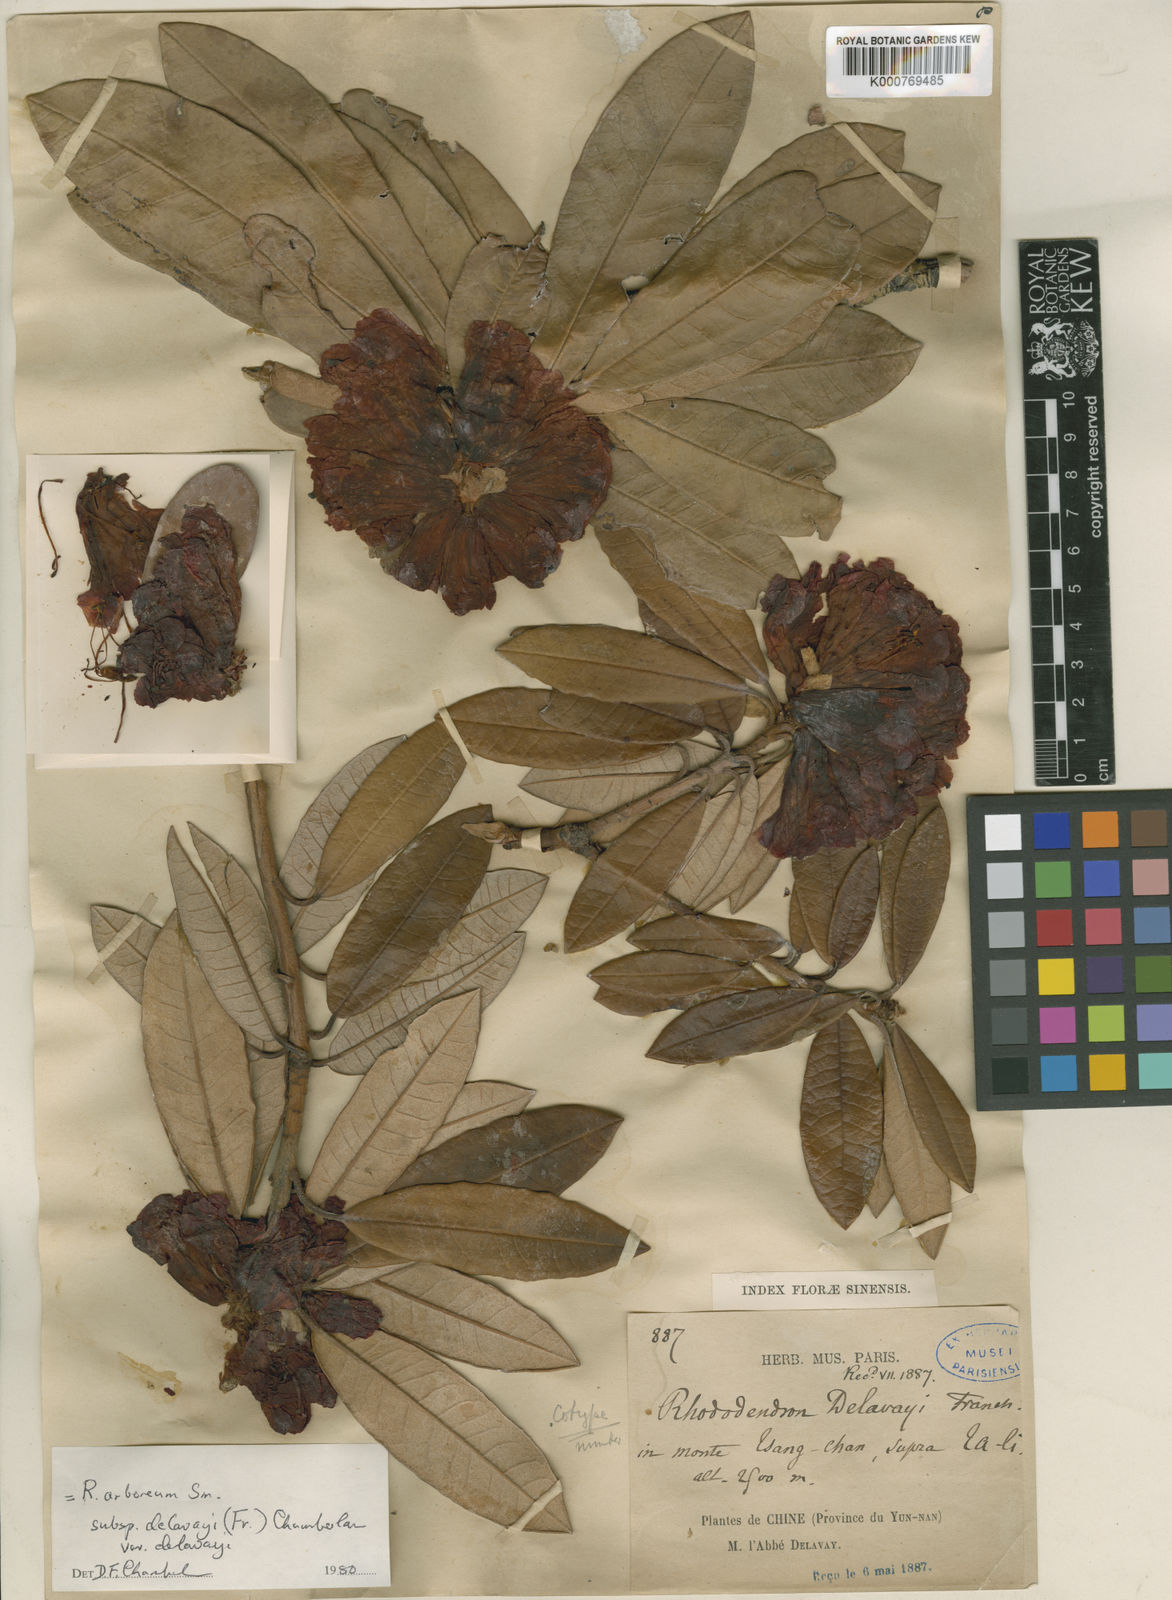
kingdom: Plantae
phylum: Tracheophyta
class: Magnoliopsida
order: Ericales
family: Ericaceae
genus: Rhododendron
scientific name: Rhododendron delavayi
